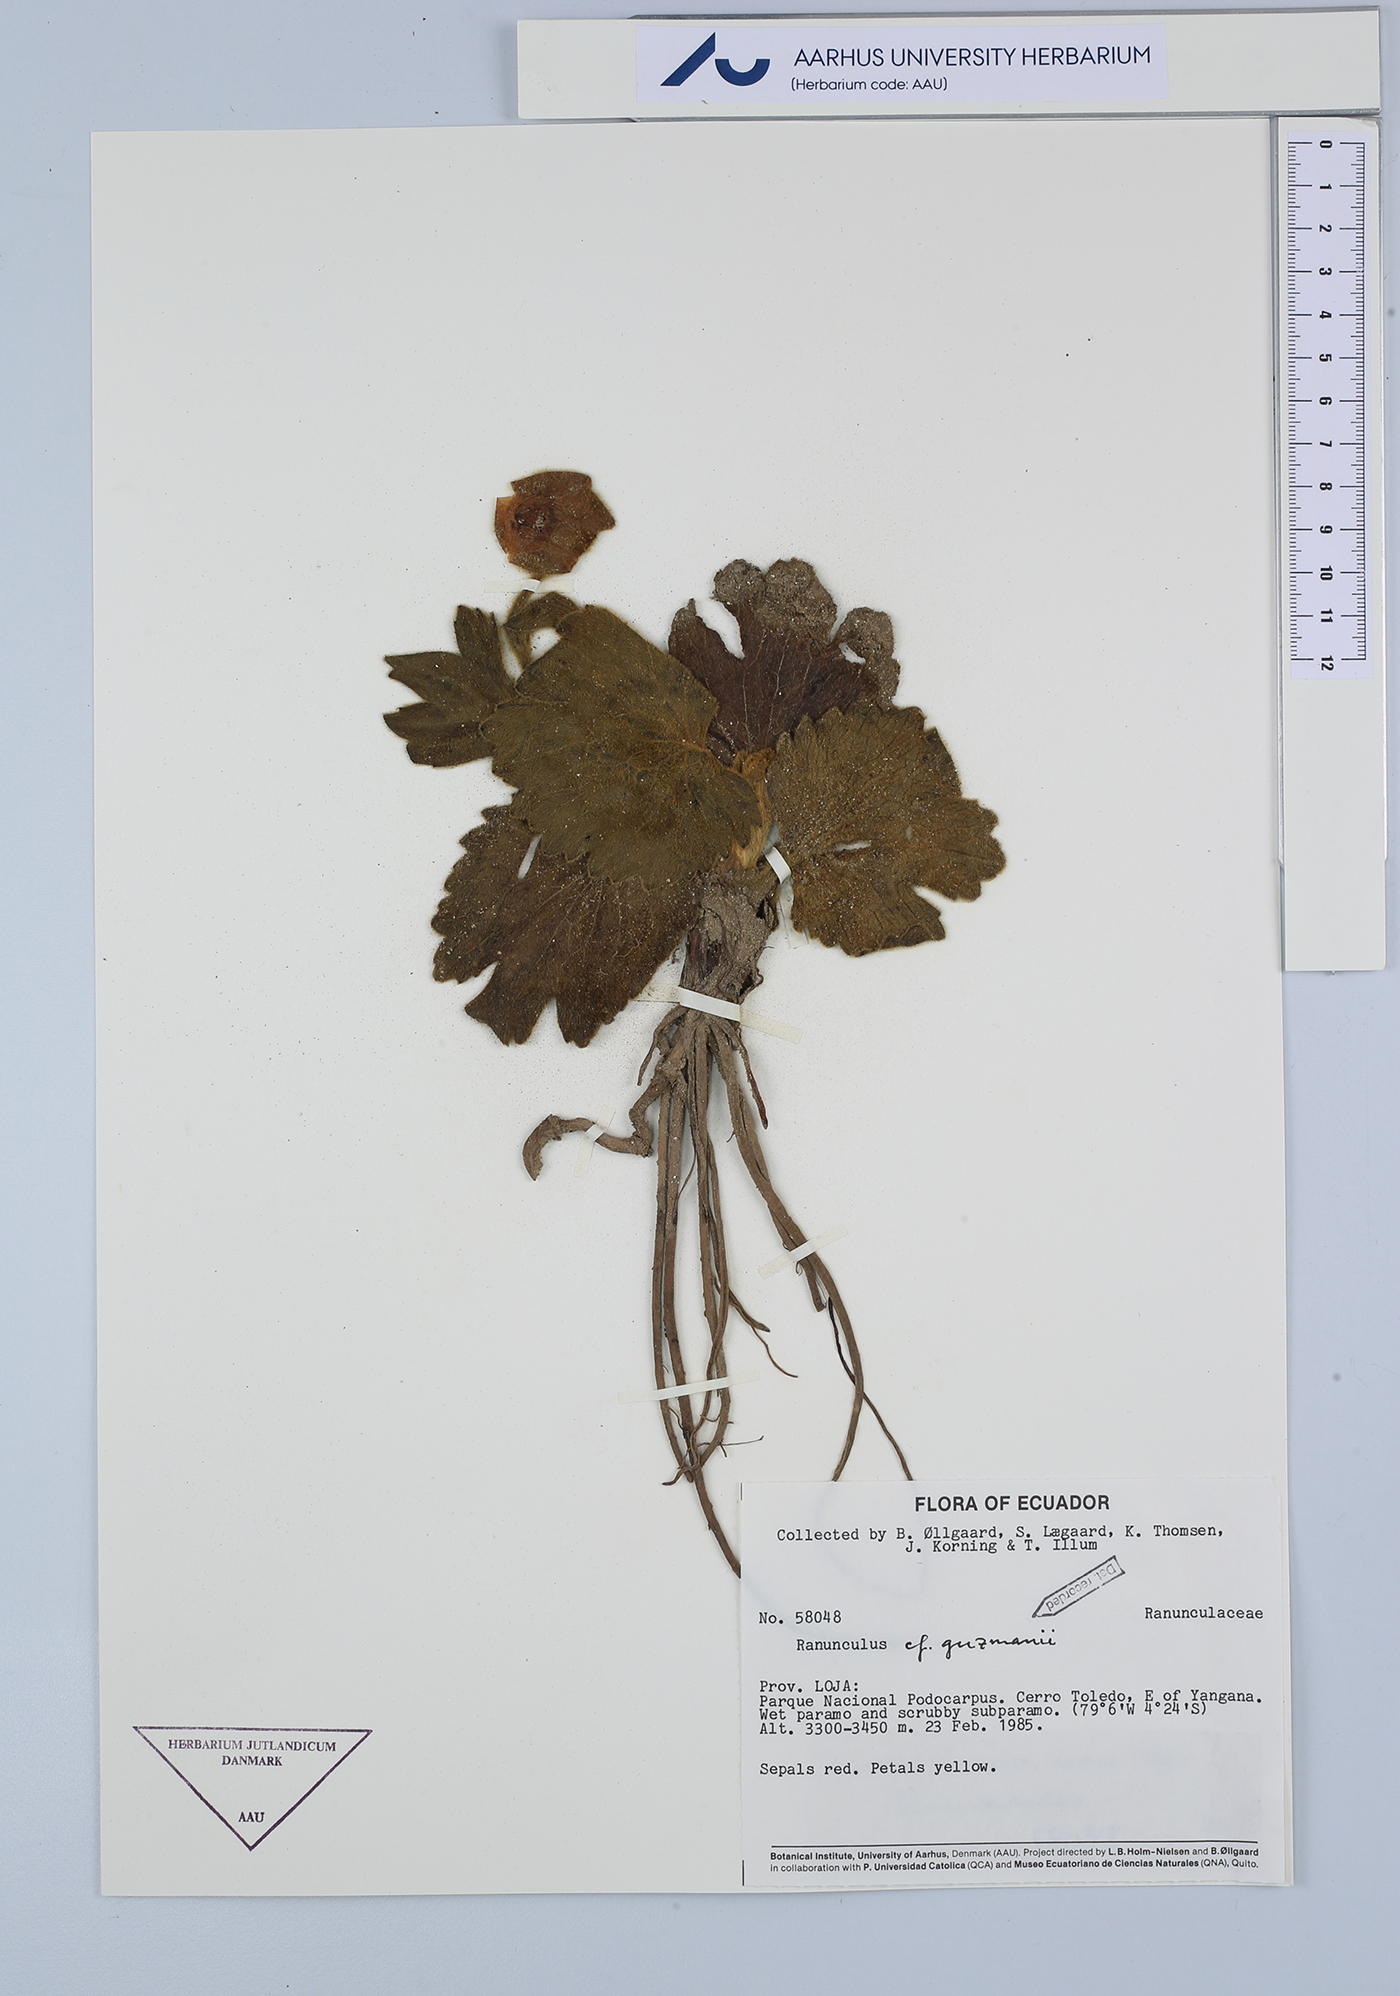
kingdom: Plantae
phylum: Tracheophyta
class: Magnoliopsida
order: Ranunculales
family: Ranunculaceae
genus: Krapfia
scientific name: Krapfia ranunculina
